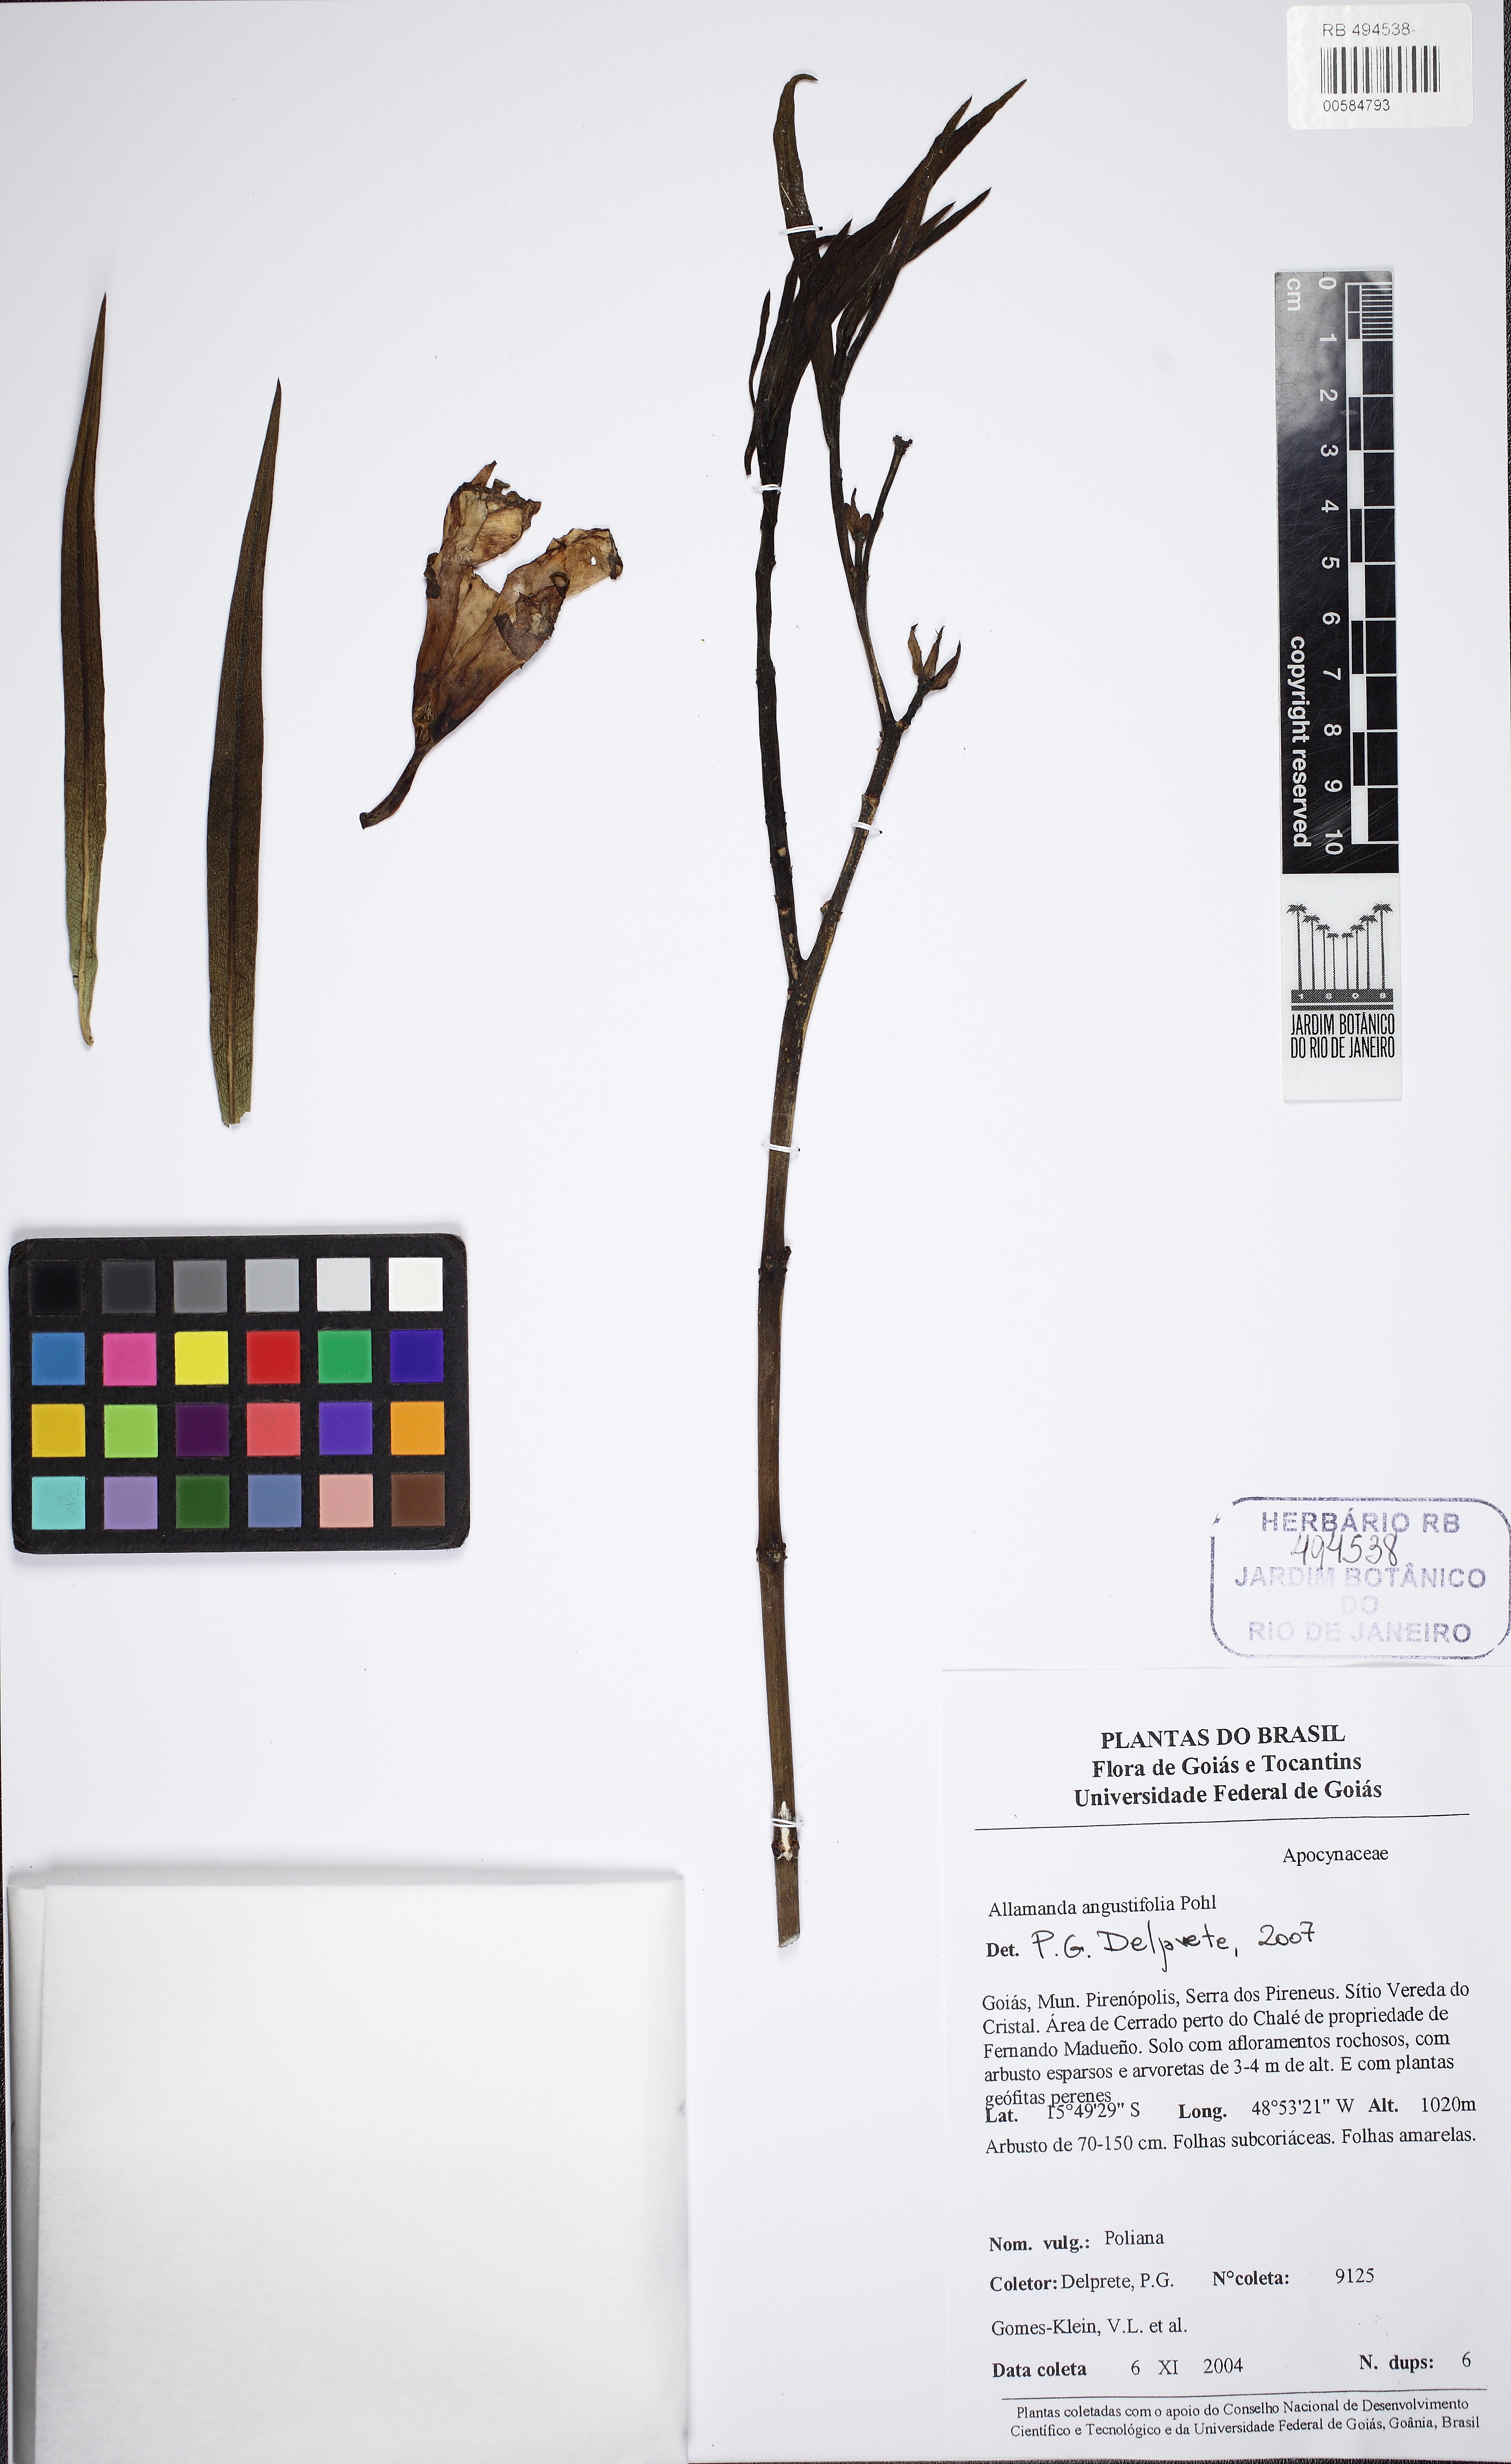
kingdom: Plantae
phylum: Tracheophyta
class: Magnoliopsida
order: Gentianales
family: Apocynaceae
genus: Allamanda
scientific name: Allamanda angustifolia
